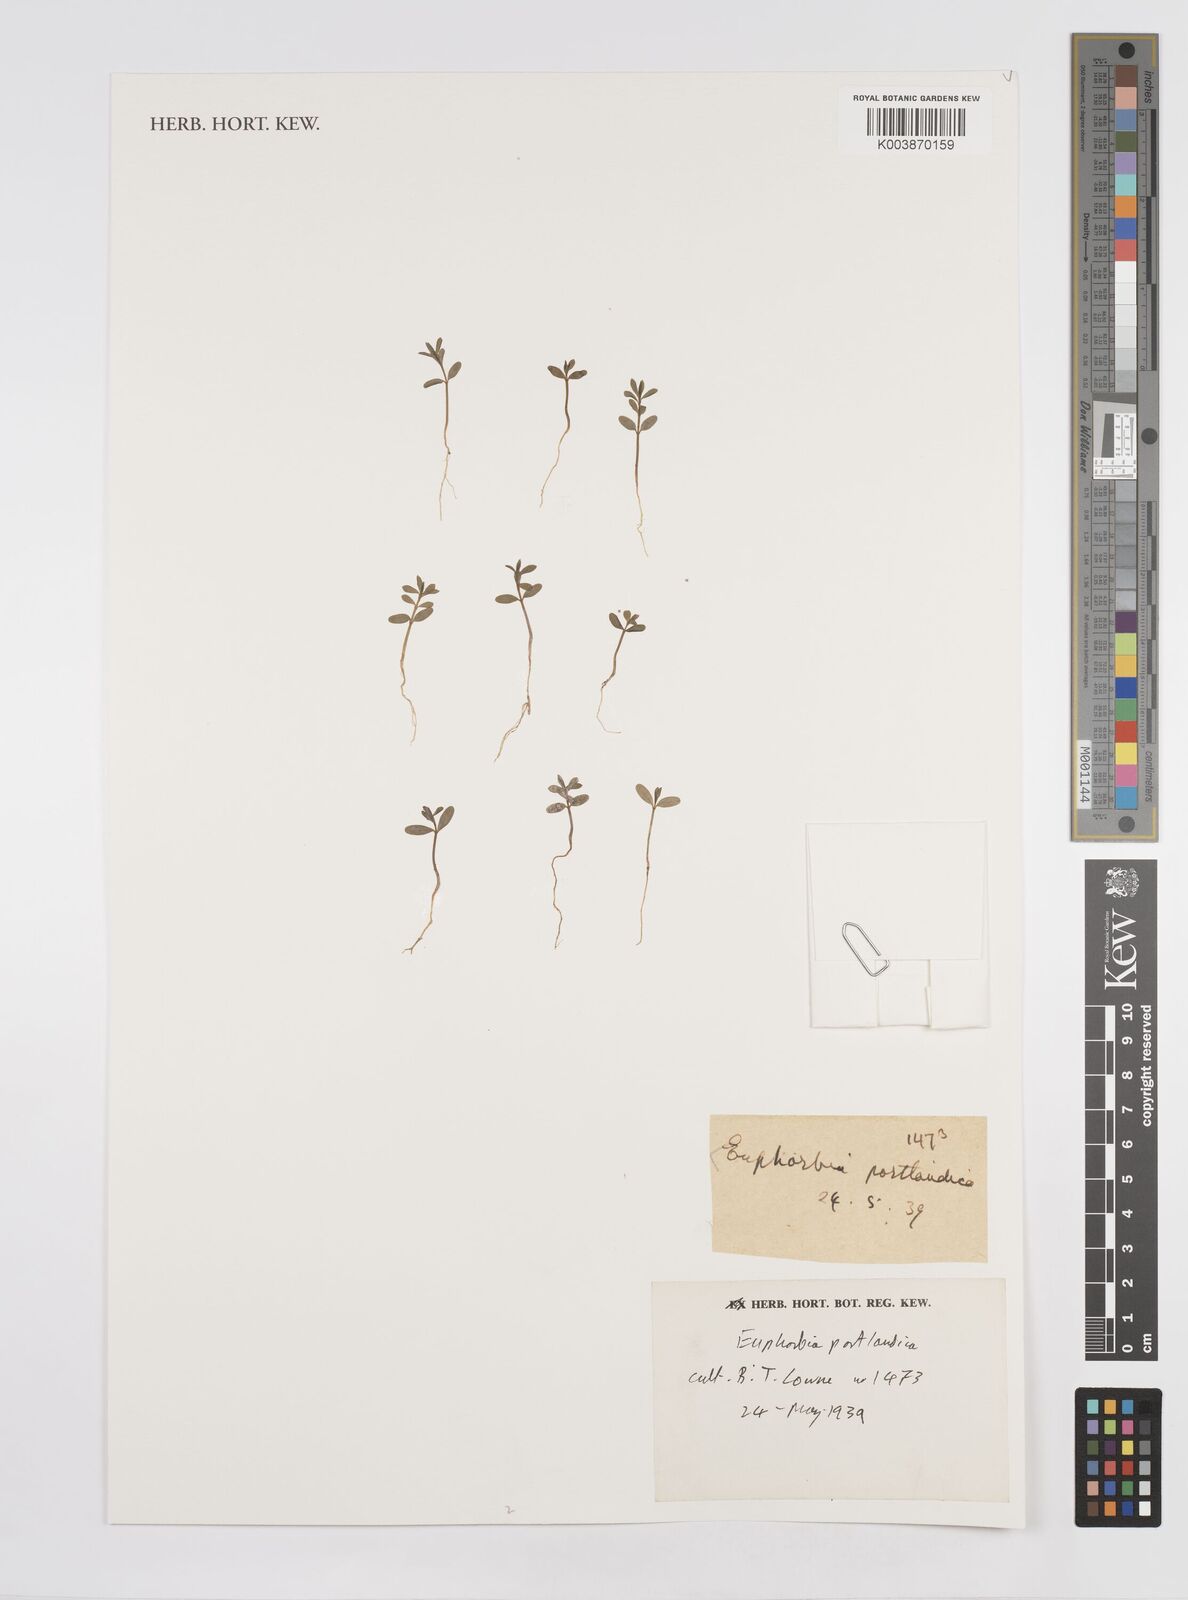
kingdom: Plantae
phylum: Tracheophyta
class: Magnoliopsida
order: Malpighiales
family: Euphorbiaceae
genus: Euphorbia
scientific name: Euphorbia portlandica
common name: Portland spurge
